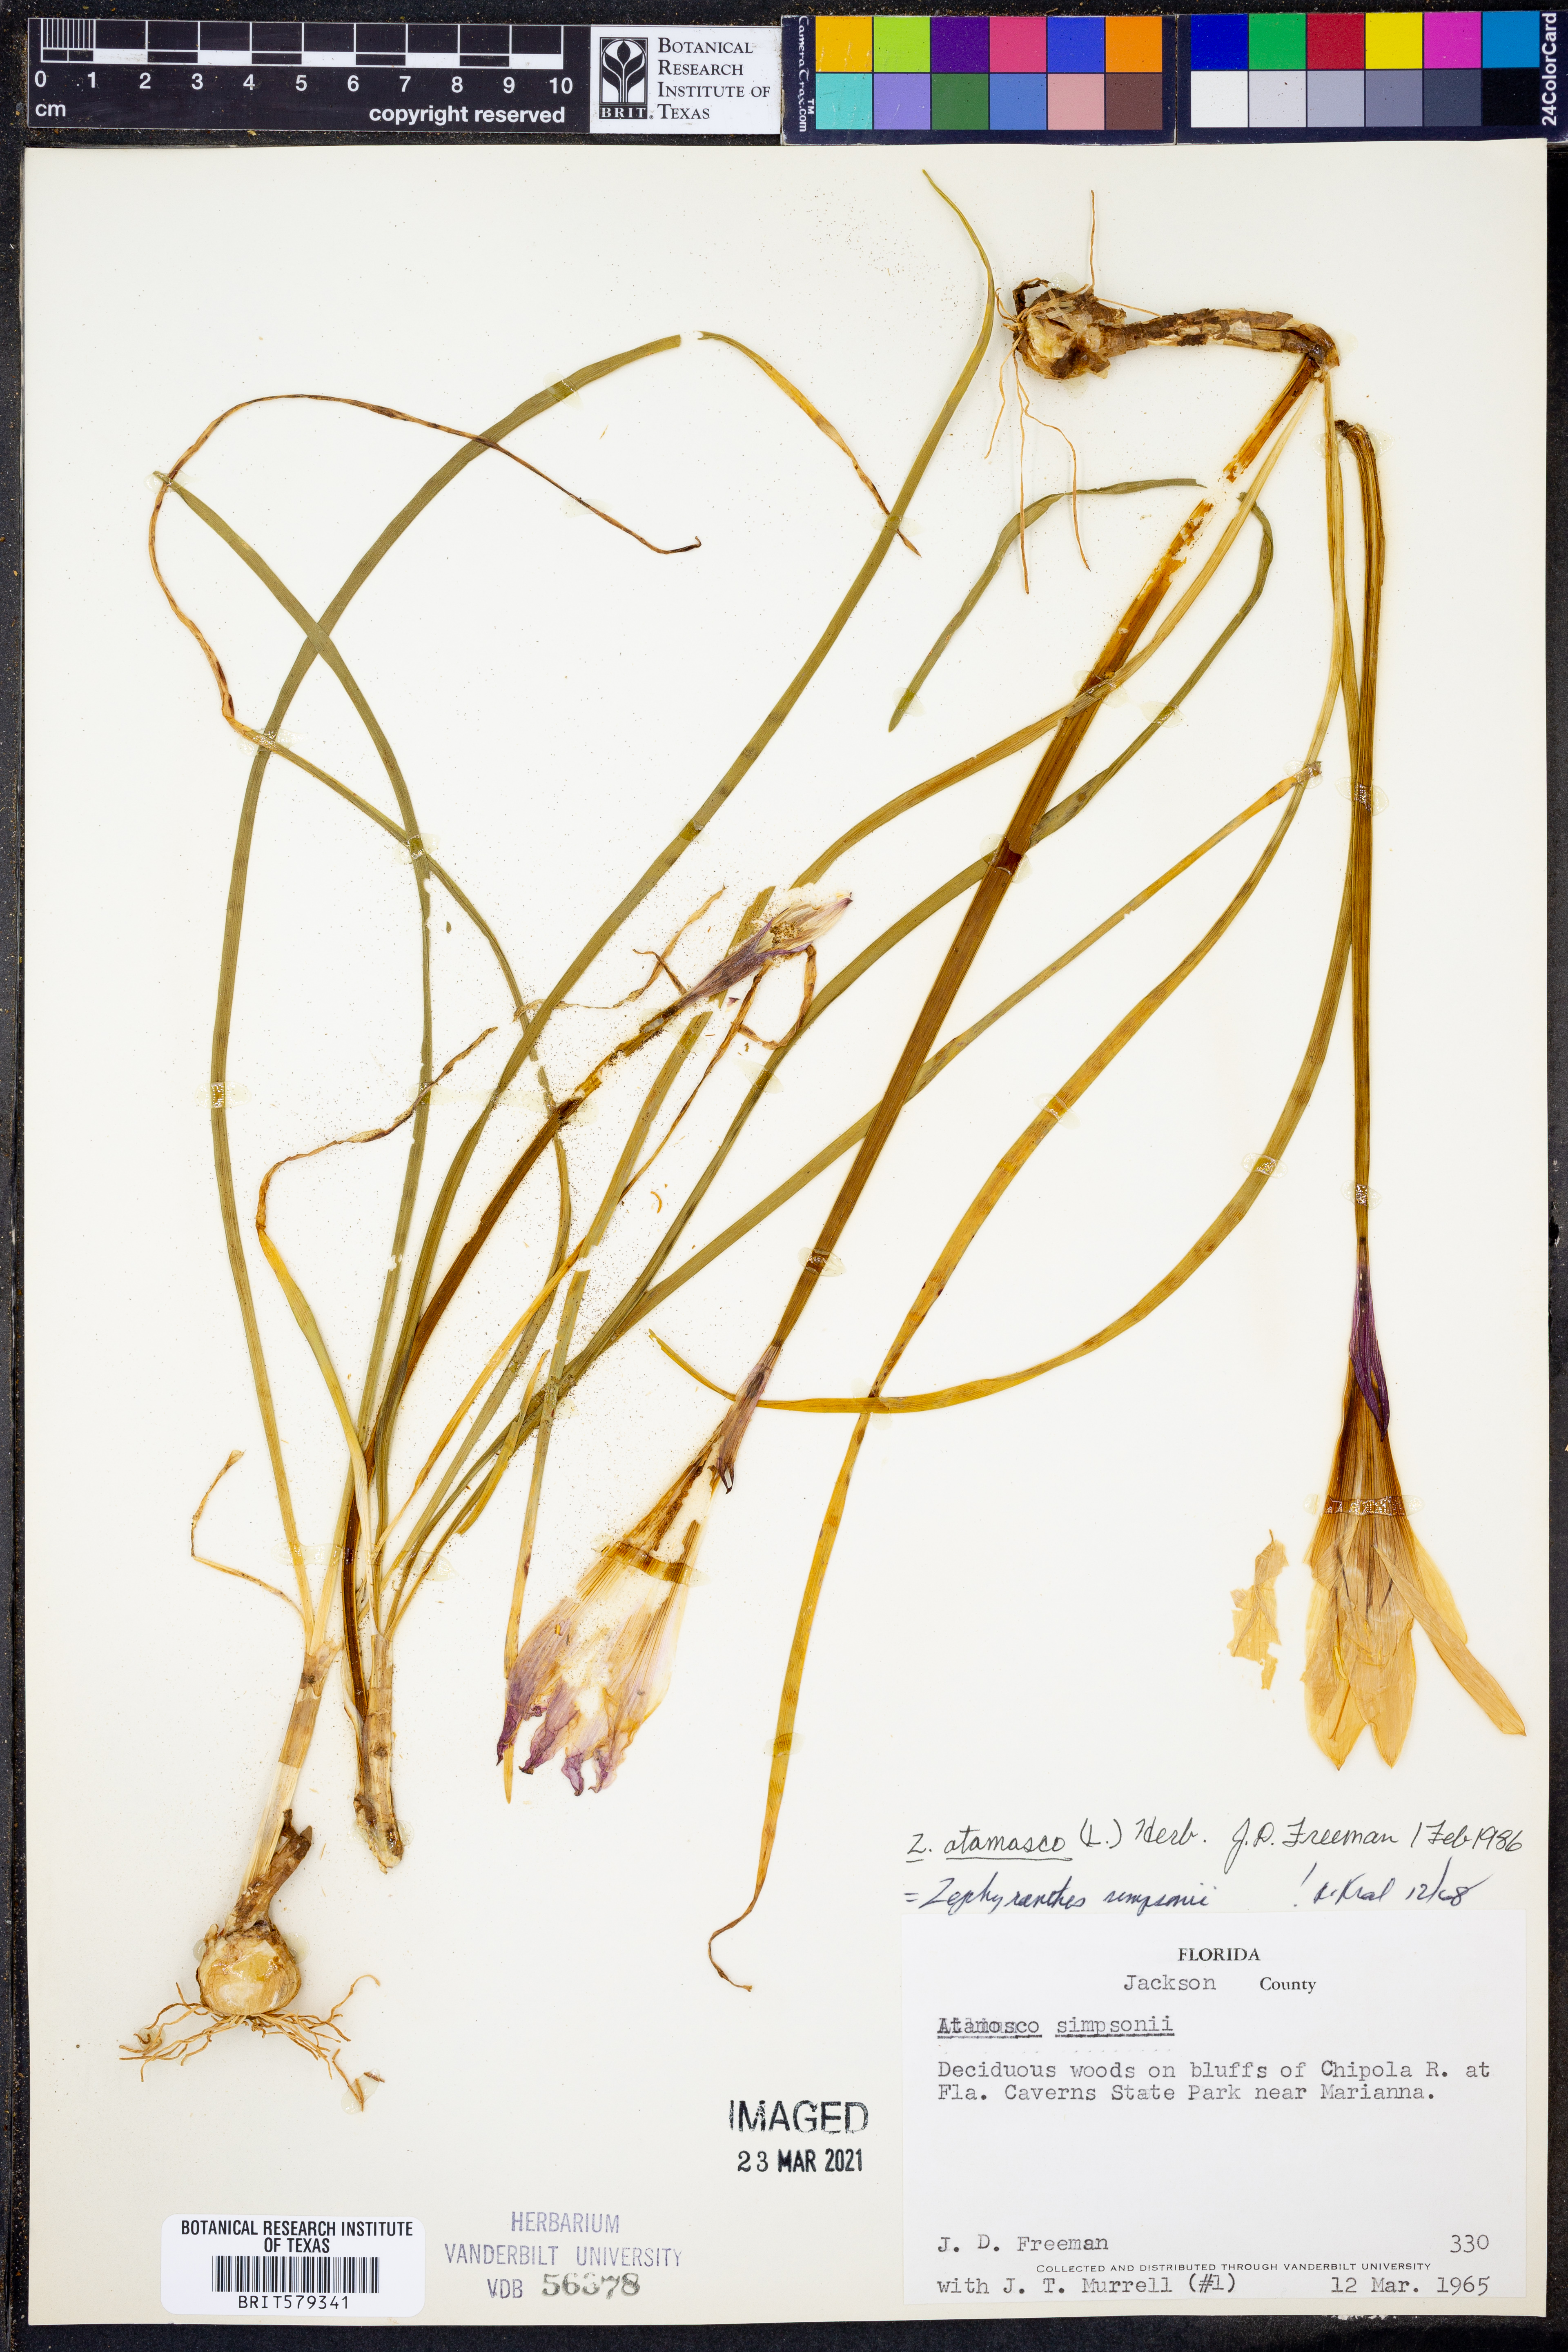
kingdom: Plantae
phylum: Tracheophyta
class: Liliopsida
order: Asparagales
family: Amaryllidaceae
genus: Zephyranthes
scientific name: Zephyranthes atamasco
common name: Atamasco lily
